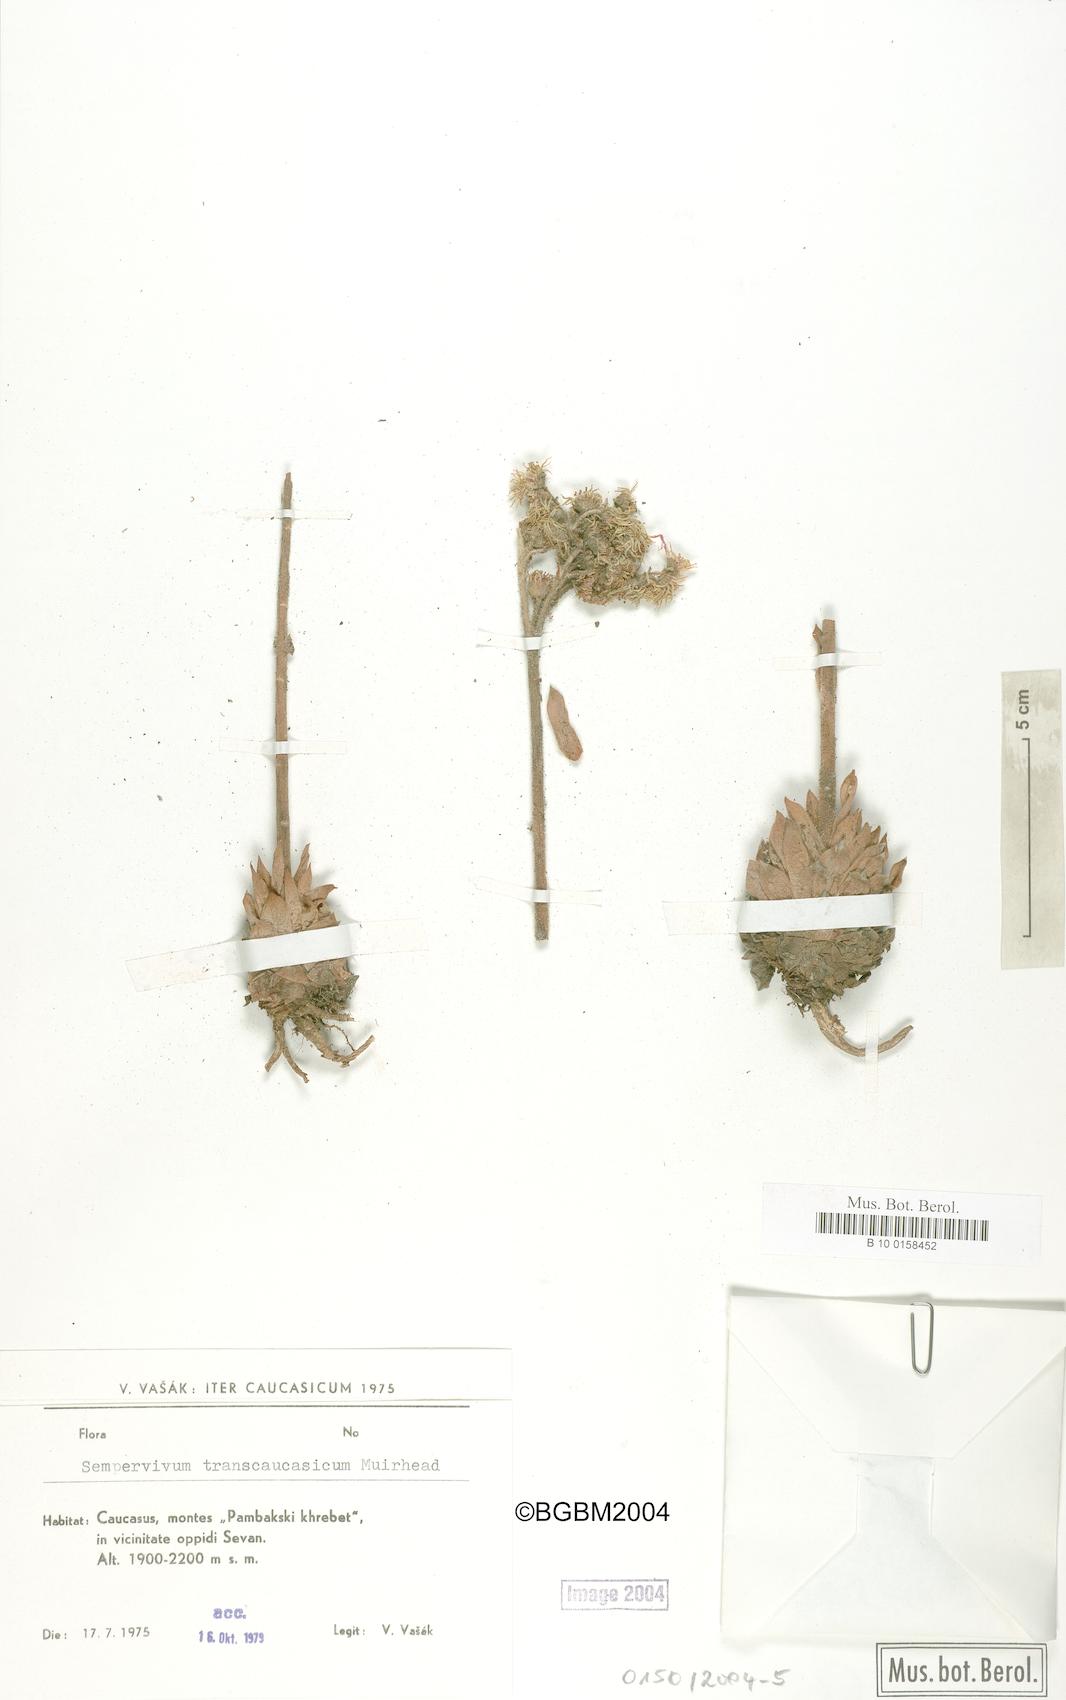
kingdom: Plantae
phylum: Tracheophyta
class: Magnoliopsida
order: Saxifragales
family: Crassulaceae
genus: Sempervivum
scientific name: Sempervivum transcaucasicum
